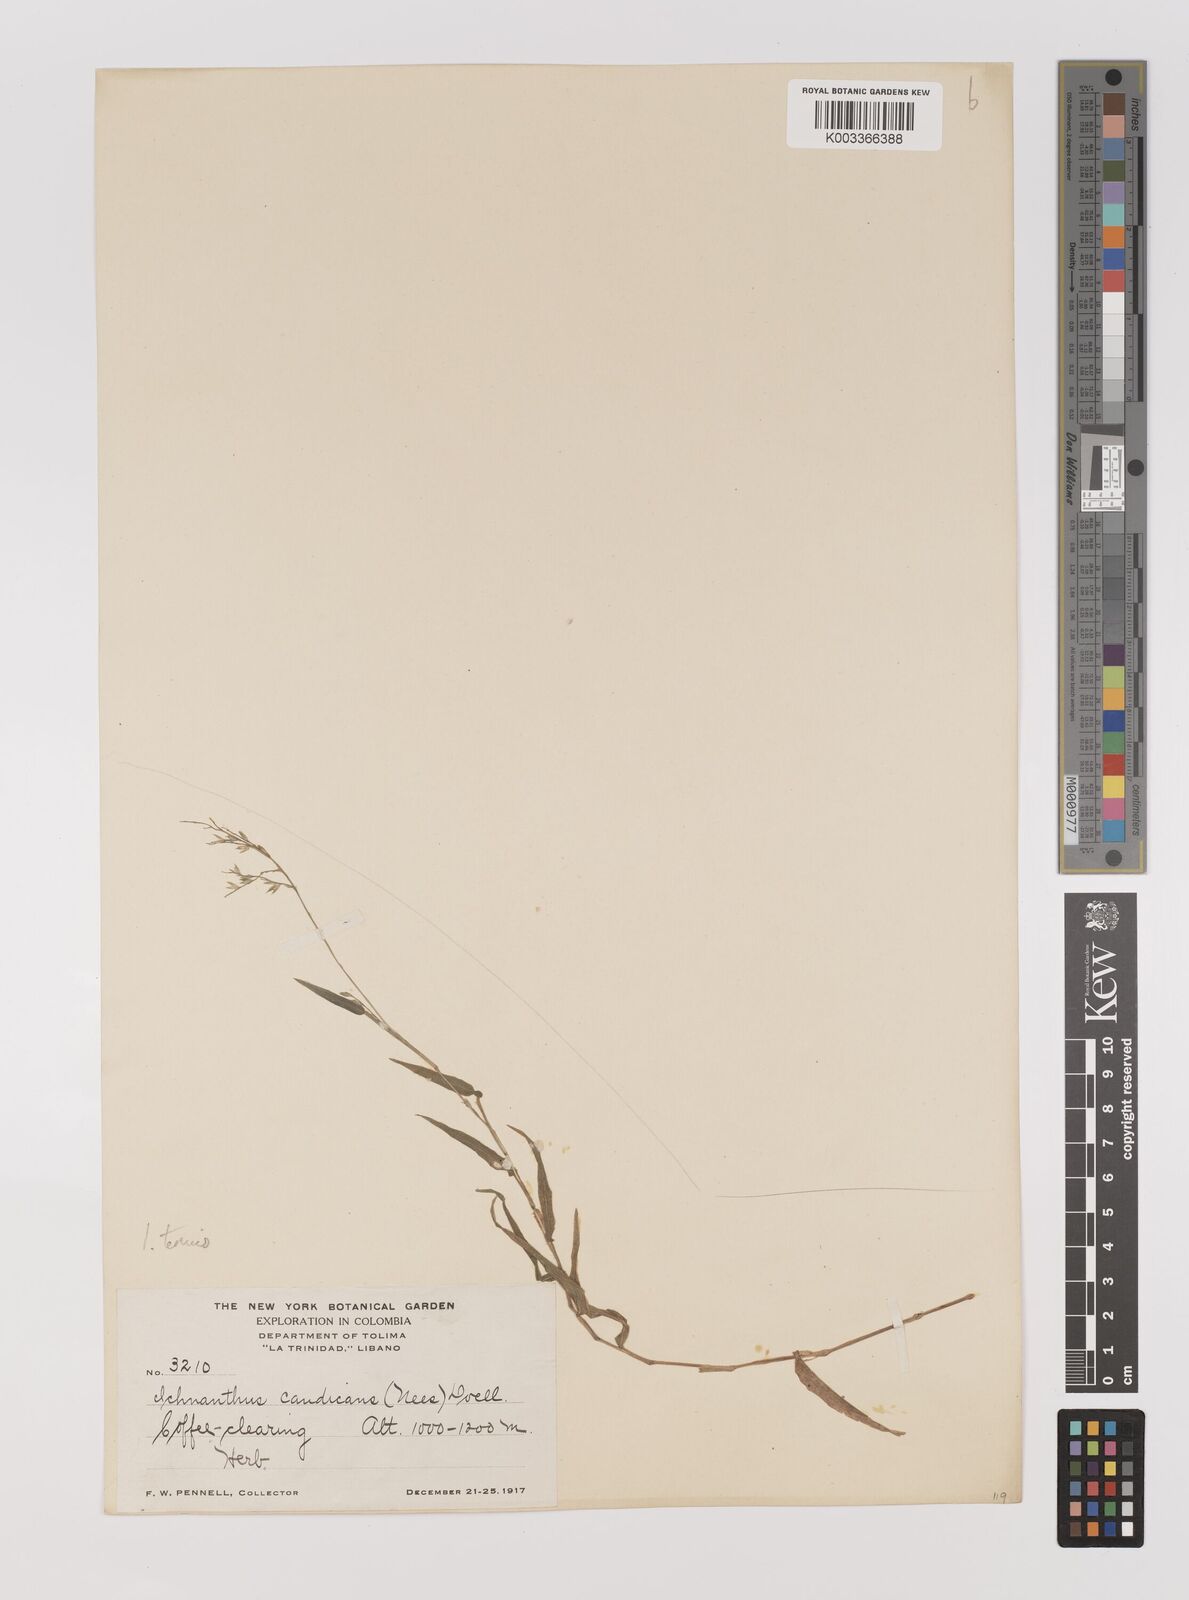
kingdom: Plantae
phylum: Tracheophyta
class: Liliopsida
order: Poales
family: Poaceae
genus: Ichnanthus
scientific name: Ichnanthus tenuis
